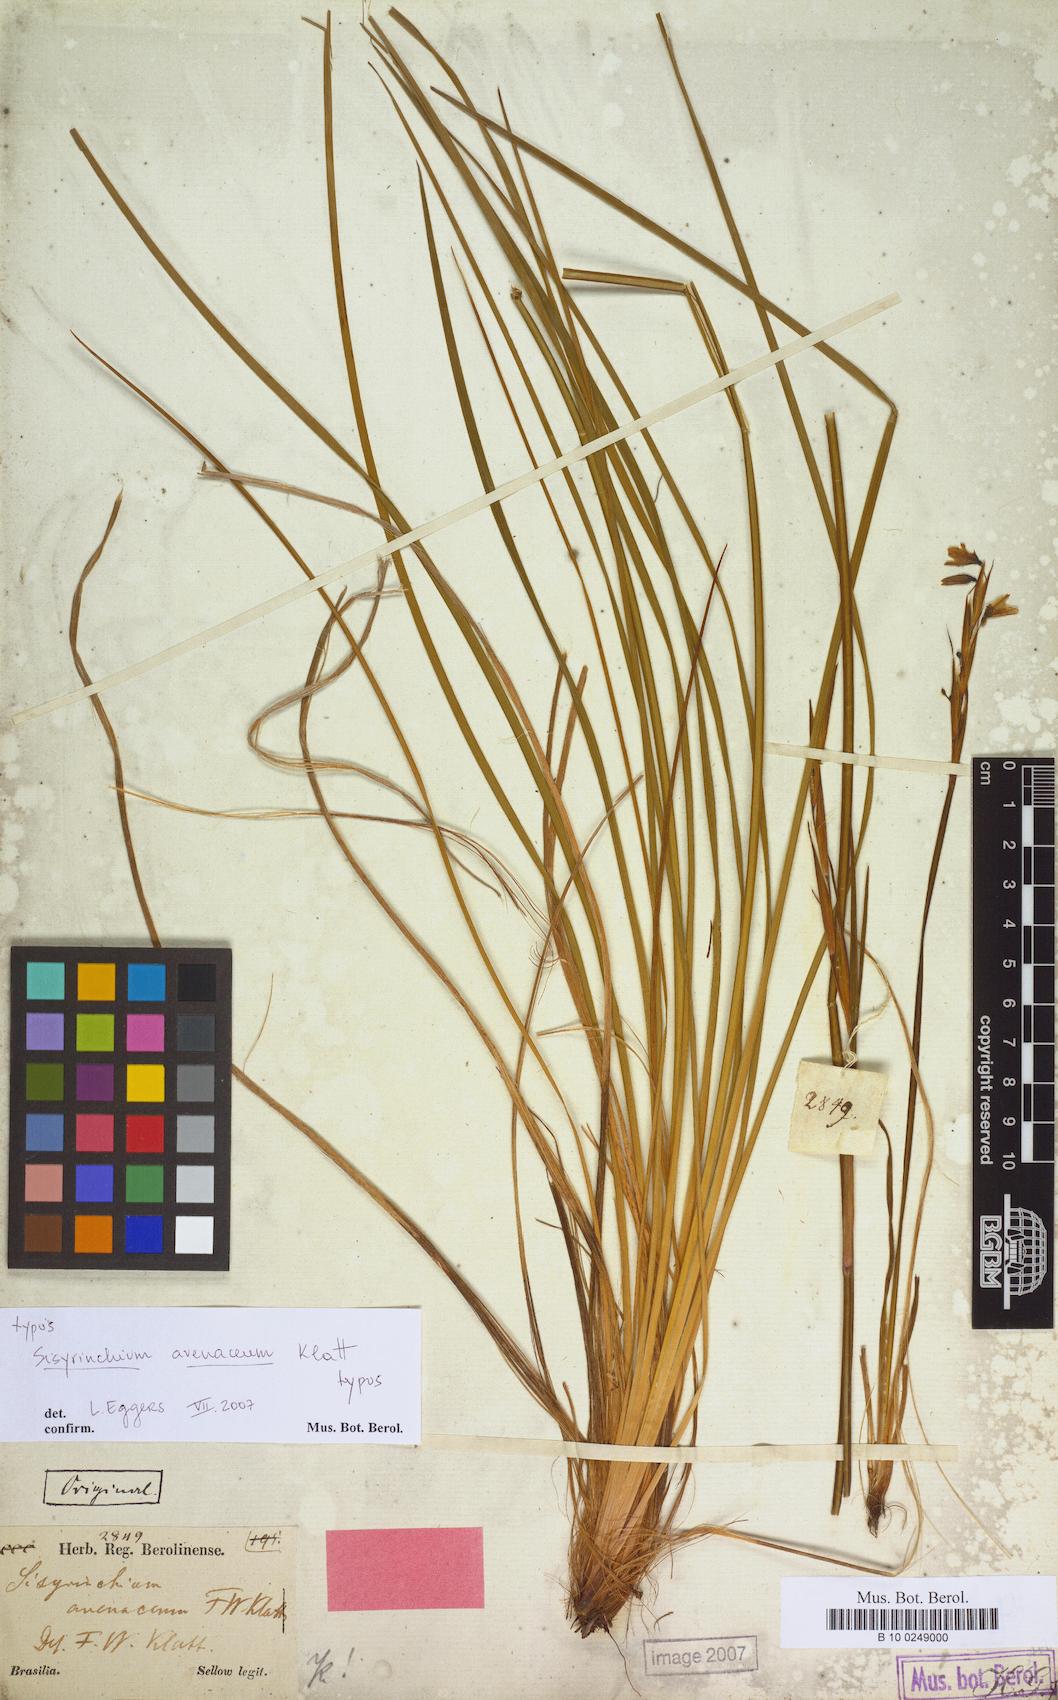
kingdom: Plantae
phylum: Tracheophyta
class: Liliopsida
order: Asparagales
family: Iridaceae
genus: Sisyrinchium
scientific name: Sisyrinchium avenaceum
